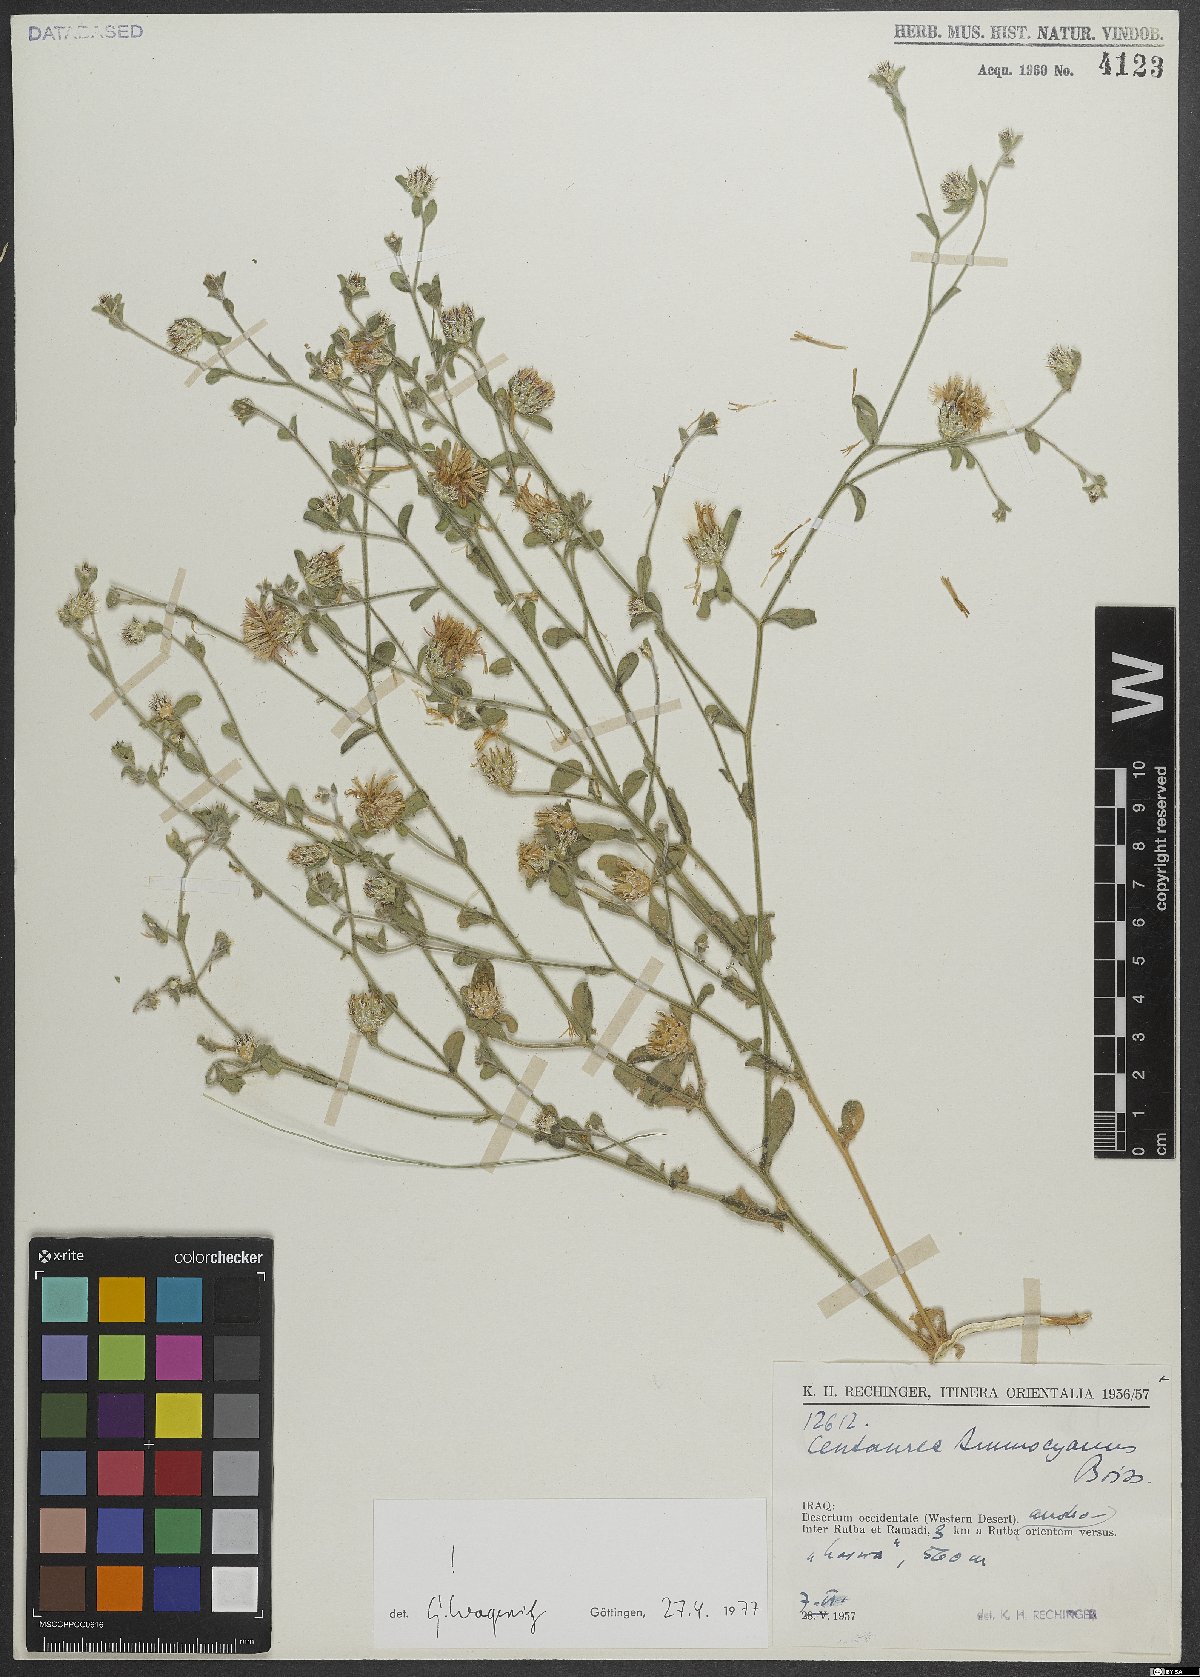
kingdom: Plantae
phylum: Tracheophyta
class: Magnoliopsida
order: Asterales
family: Asteraceae
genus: Centaurea
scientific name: Centaurea ammocyanus
